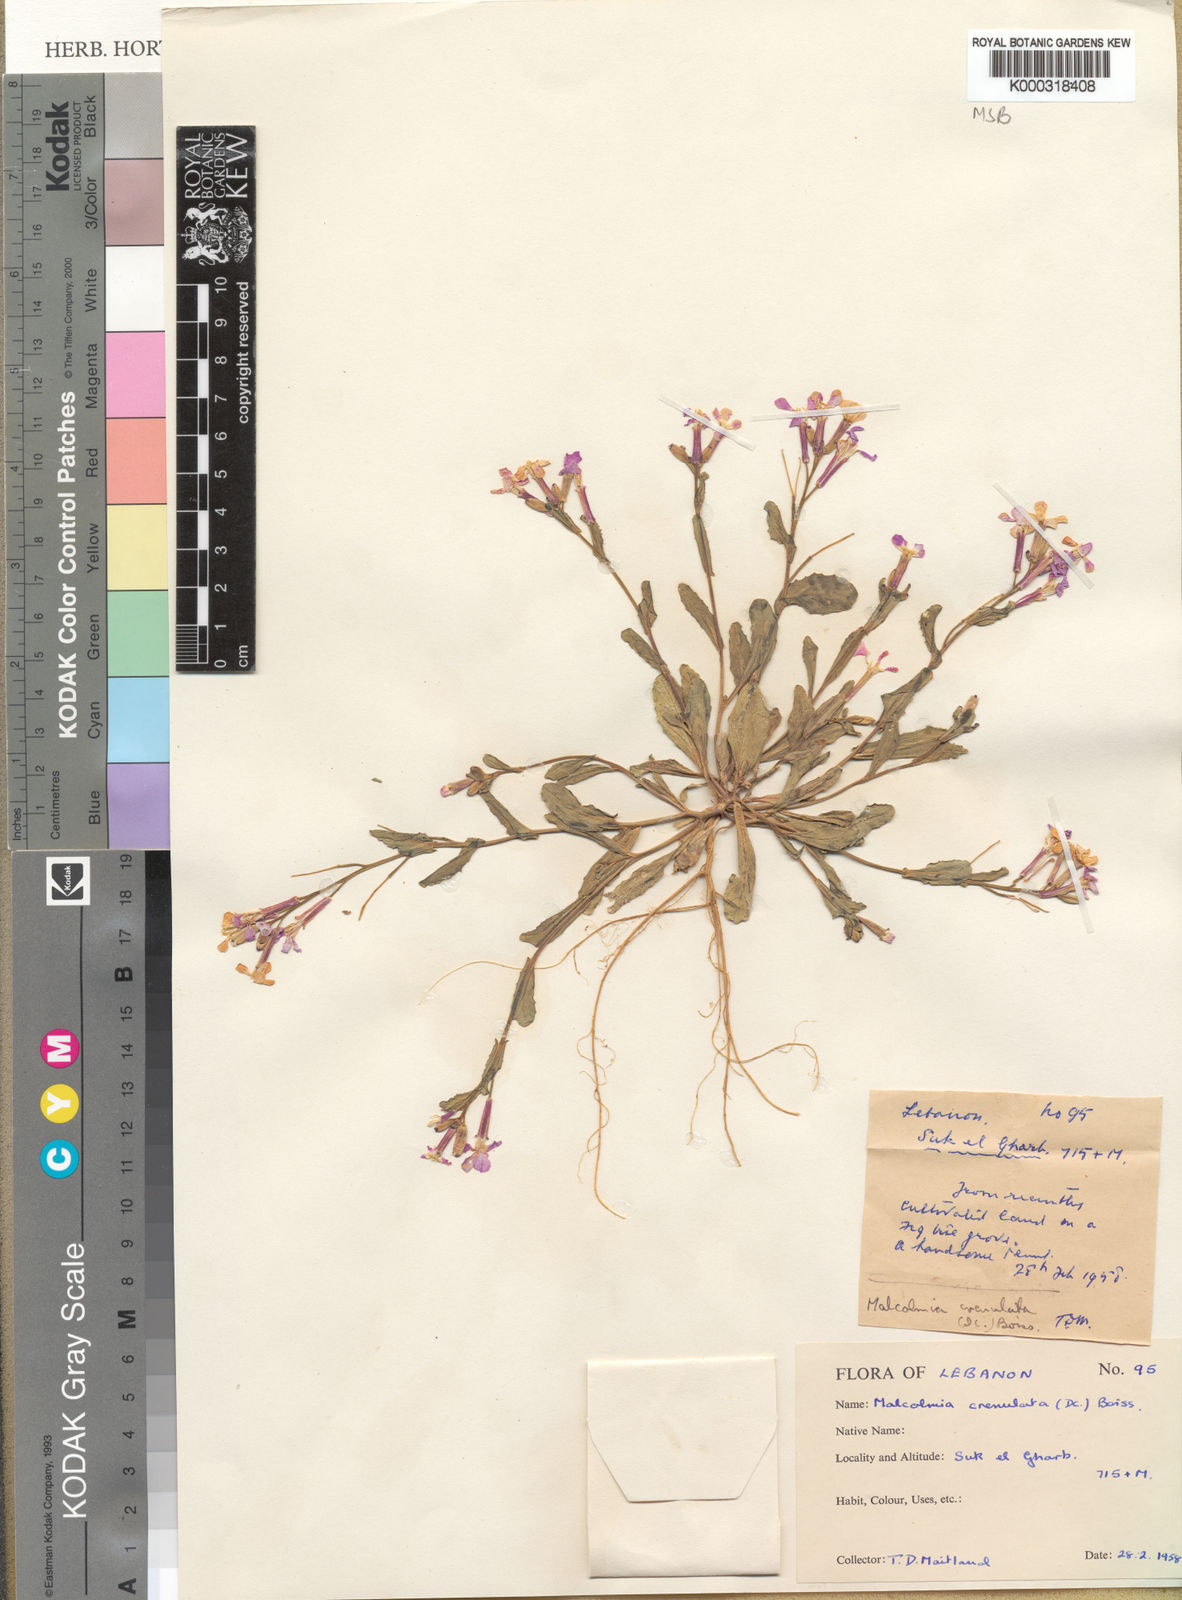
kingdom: Plantae
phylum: Tracheophyta
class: Magnoliopsida
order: Brassicales
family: Brassicaceae
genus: Zuvanda
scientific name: Zuvanda crenulata
